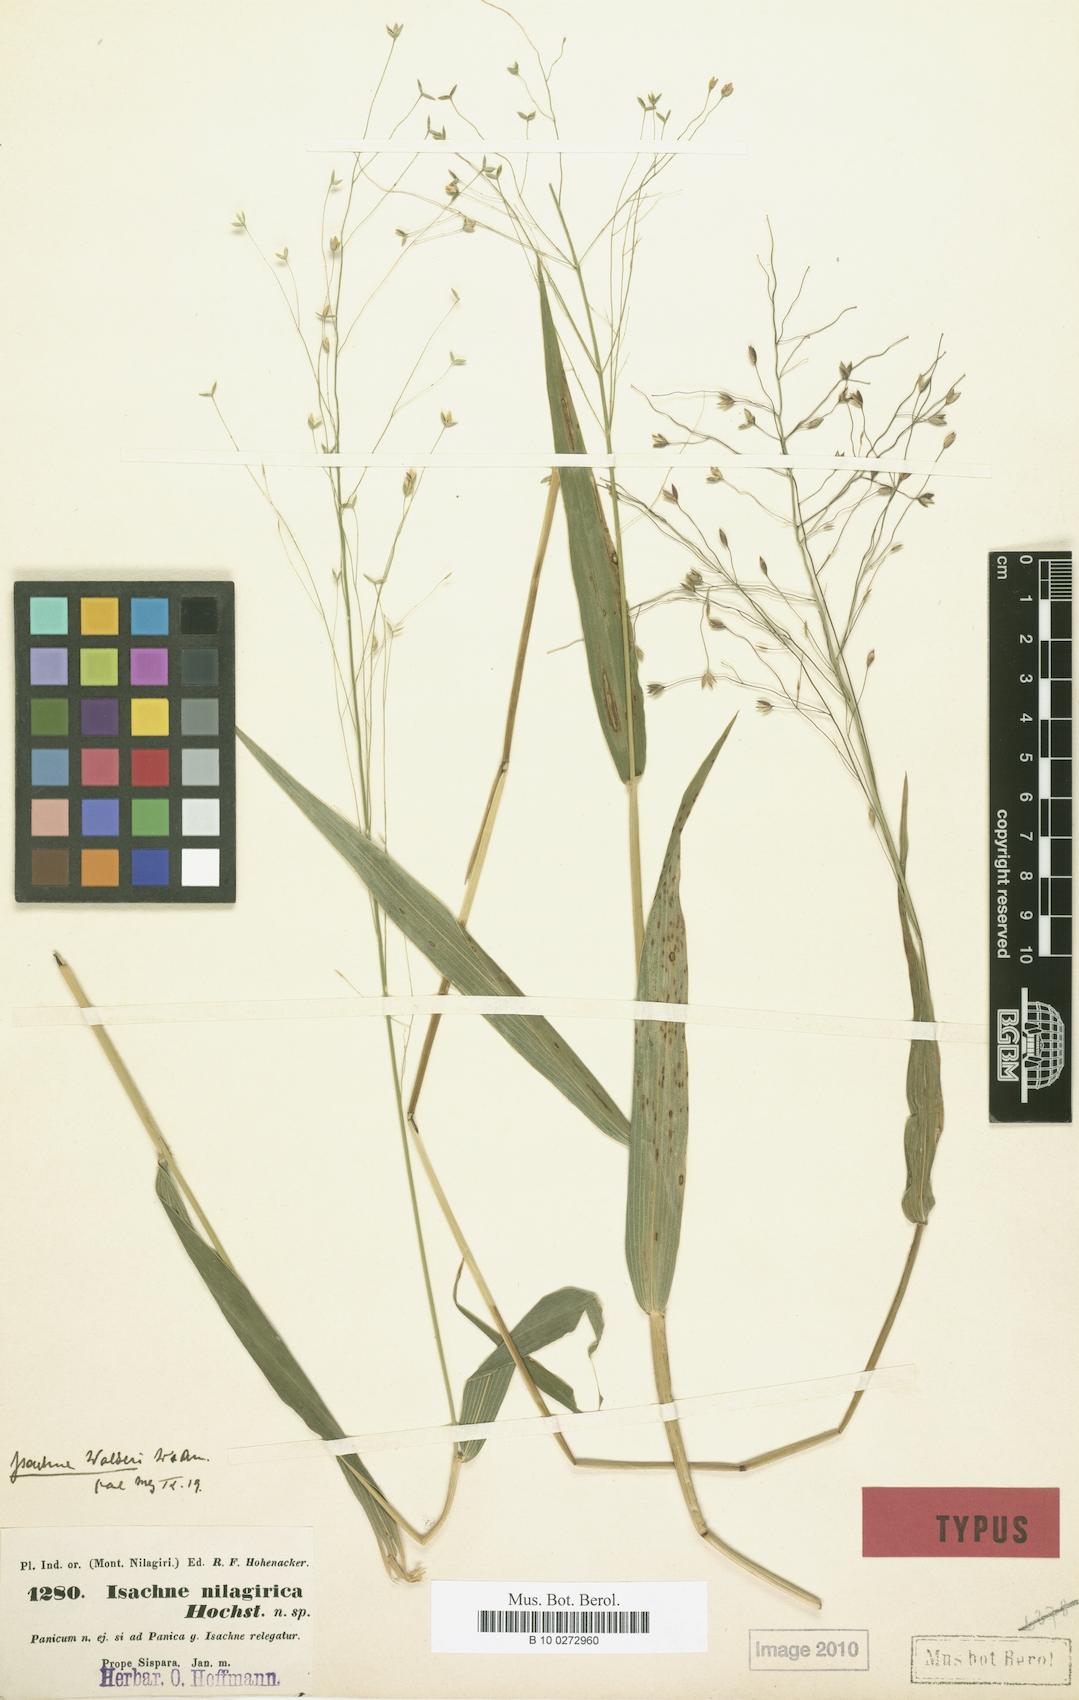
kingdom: Plantae
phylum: Tracheophyta
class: Liliopsida
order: Poales
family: Poaceae
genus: Isachne
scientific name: Isachne walkeri
